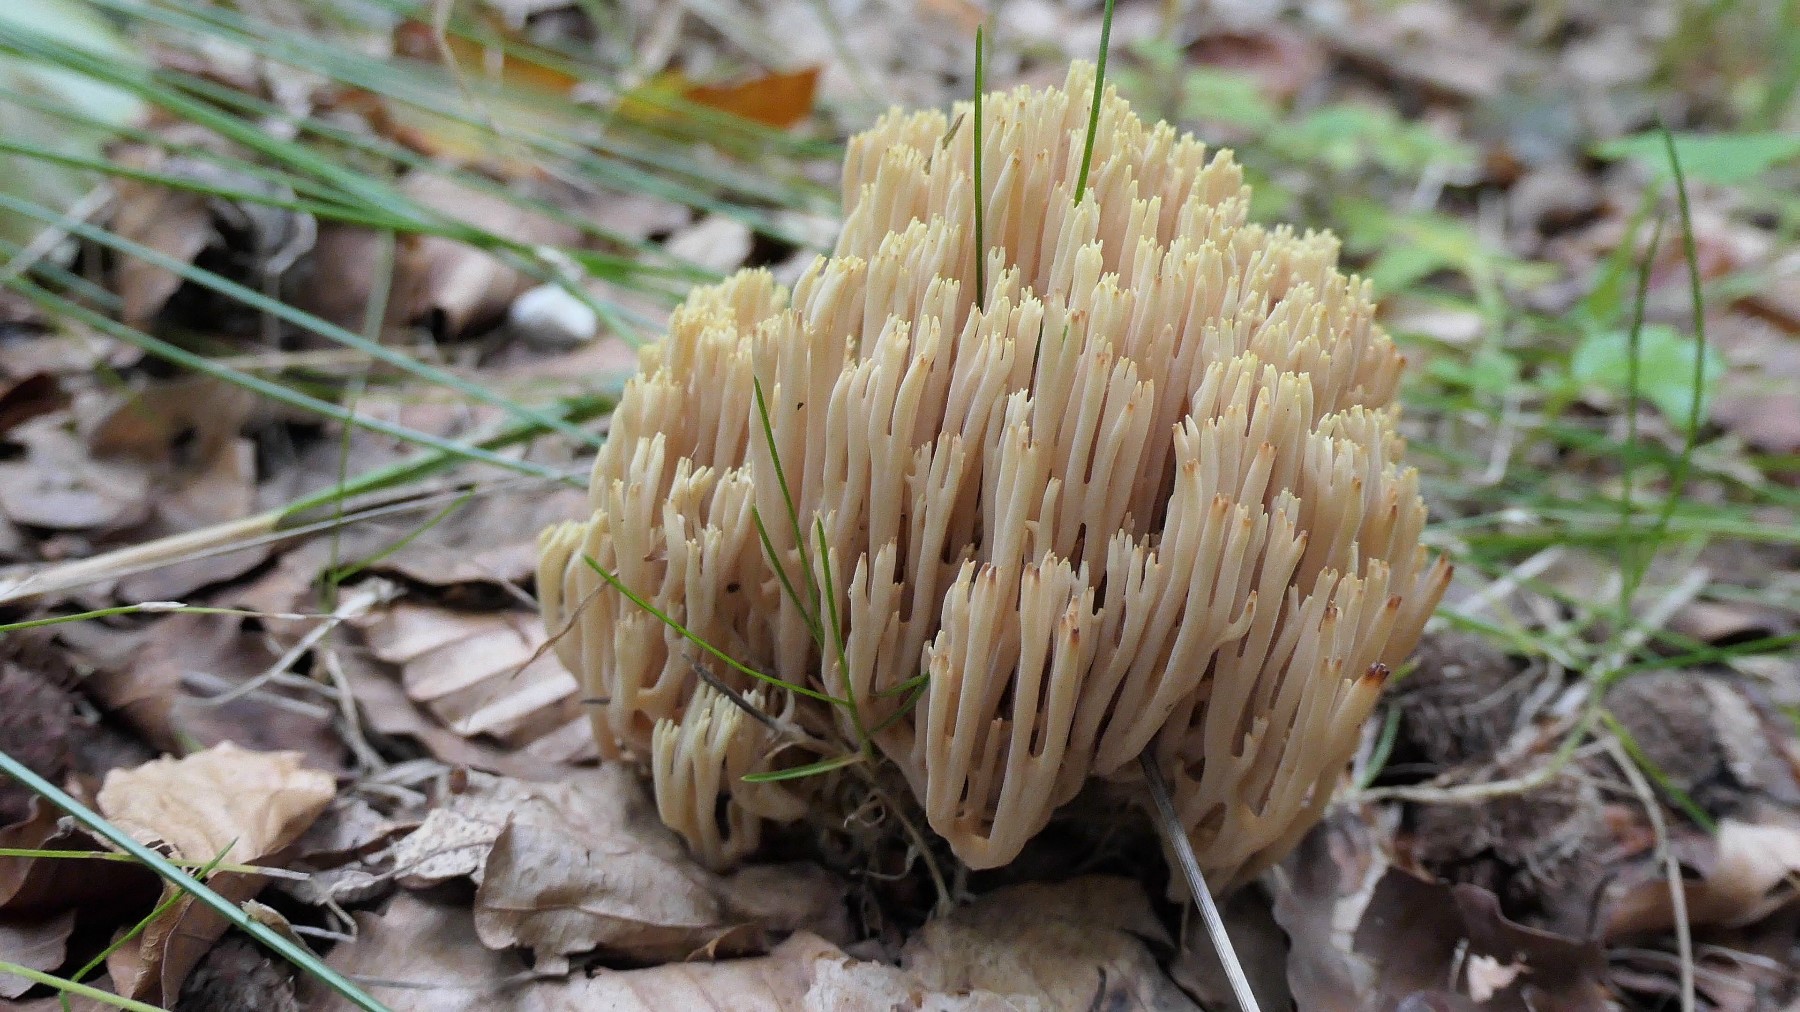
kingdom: Fungi
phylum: Basidiomycota
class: Agaricomycetes
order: Gomphales
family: Gomphaceae
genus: Ramaria
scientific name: Ramaria stricta
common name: rank koralsvamp
